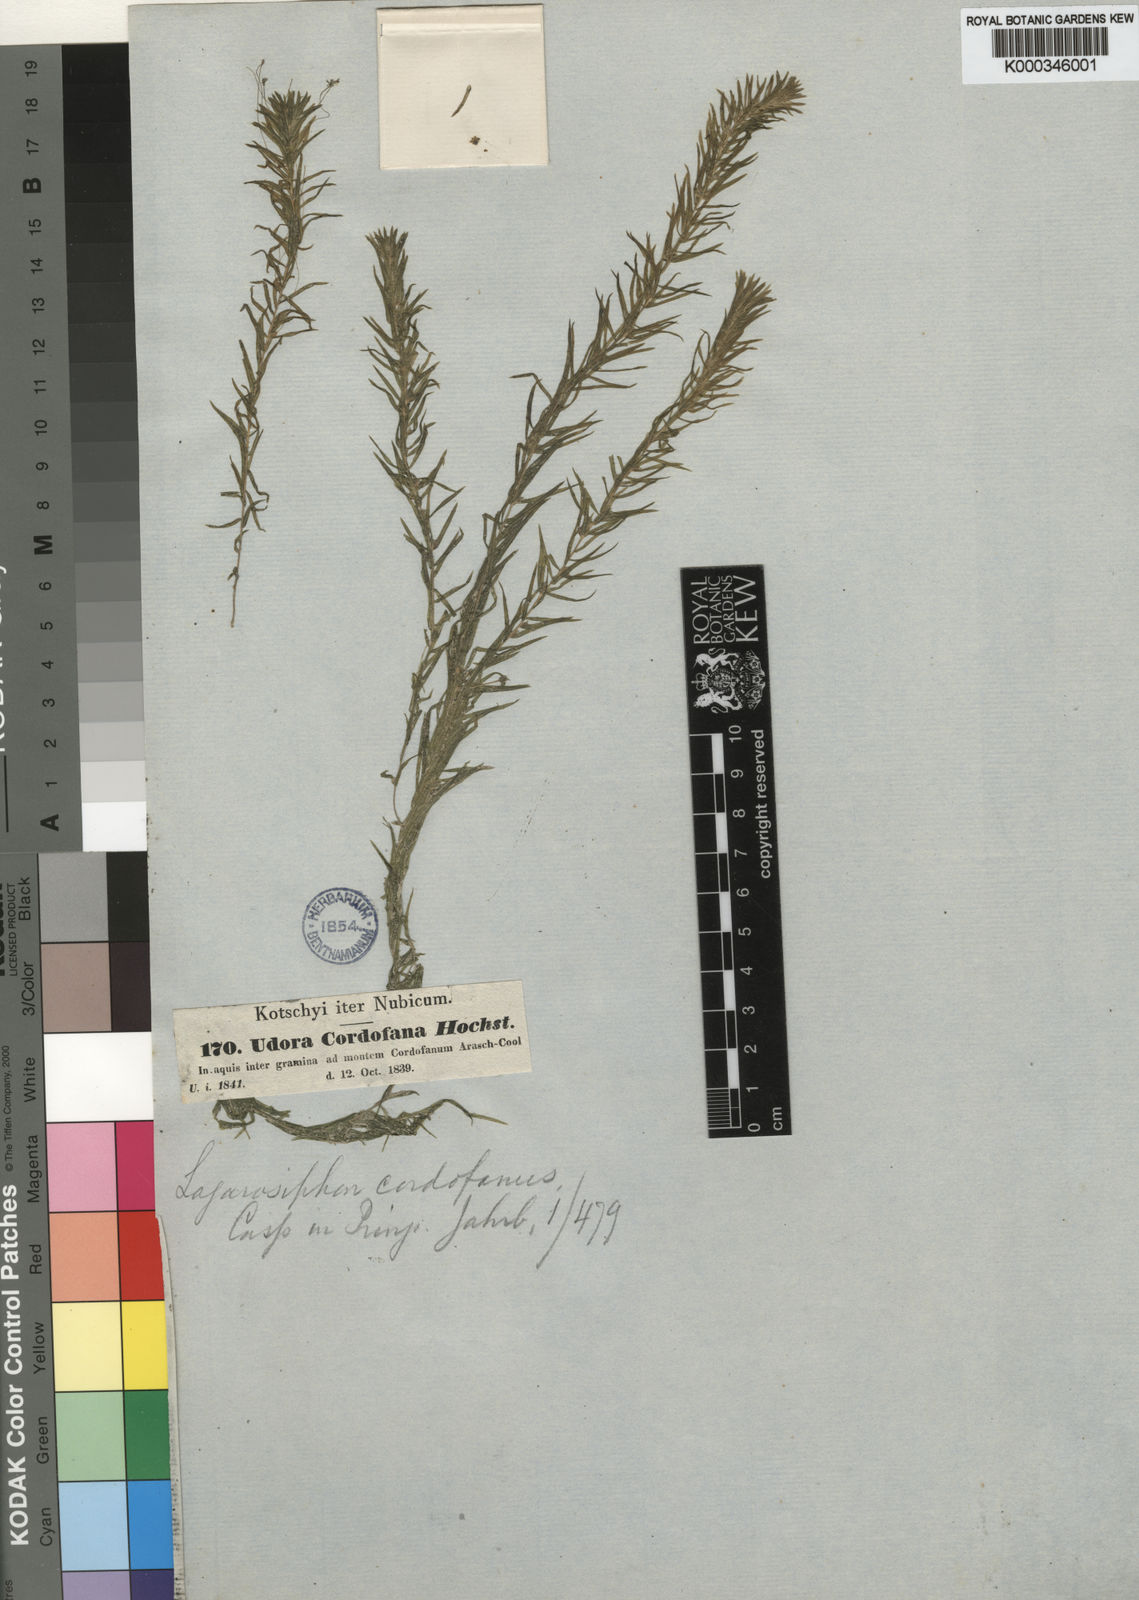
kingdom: Plantae
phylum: Tracheophyta
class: Liliopsida
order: Alismatales
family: Hydrocharitaceae
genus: Lagarosiphon
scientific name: Lagarosiphon cordofanus
